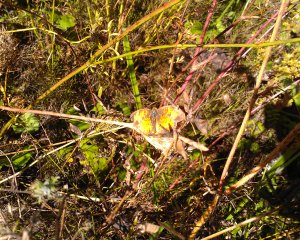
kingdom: Animalia
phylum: Arthropoda
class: Insecta
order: Lepidoptera
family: Nymphalidae
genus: Phyciodes
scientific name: Phyciodes tharos
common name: Northern Crescent
